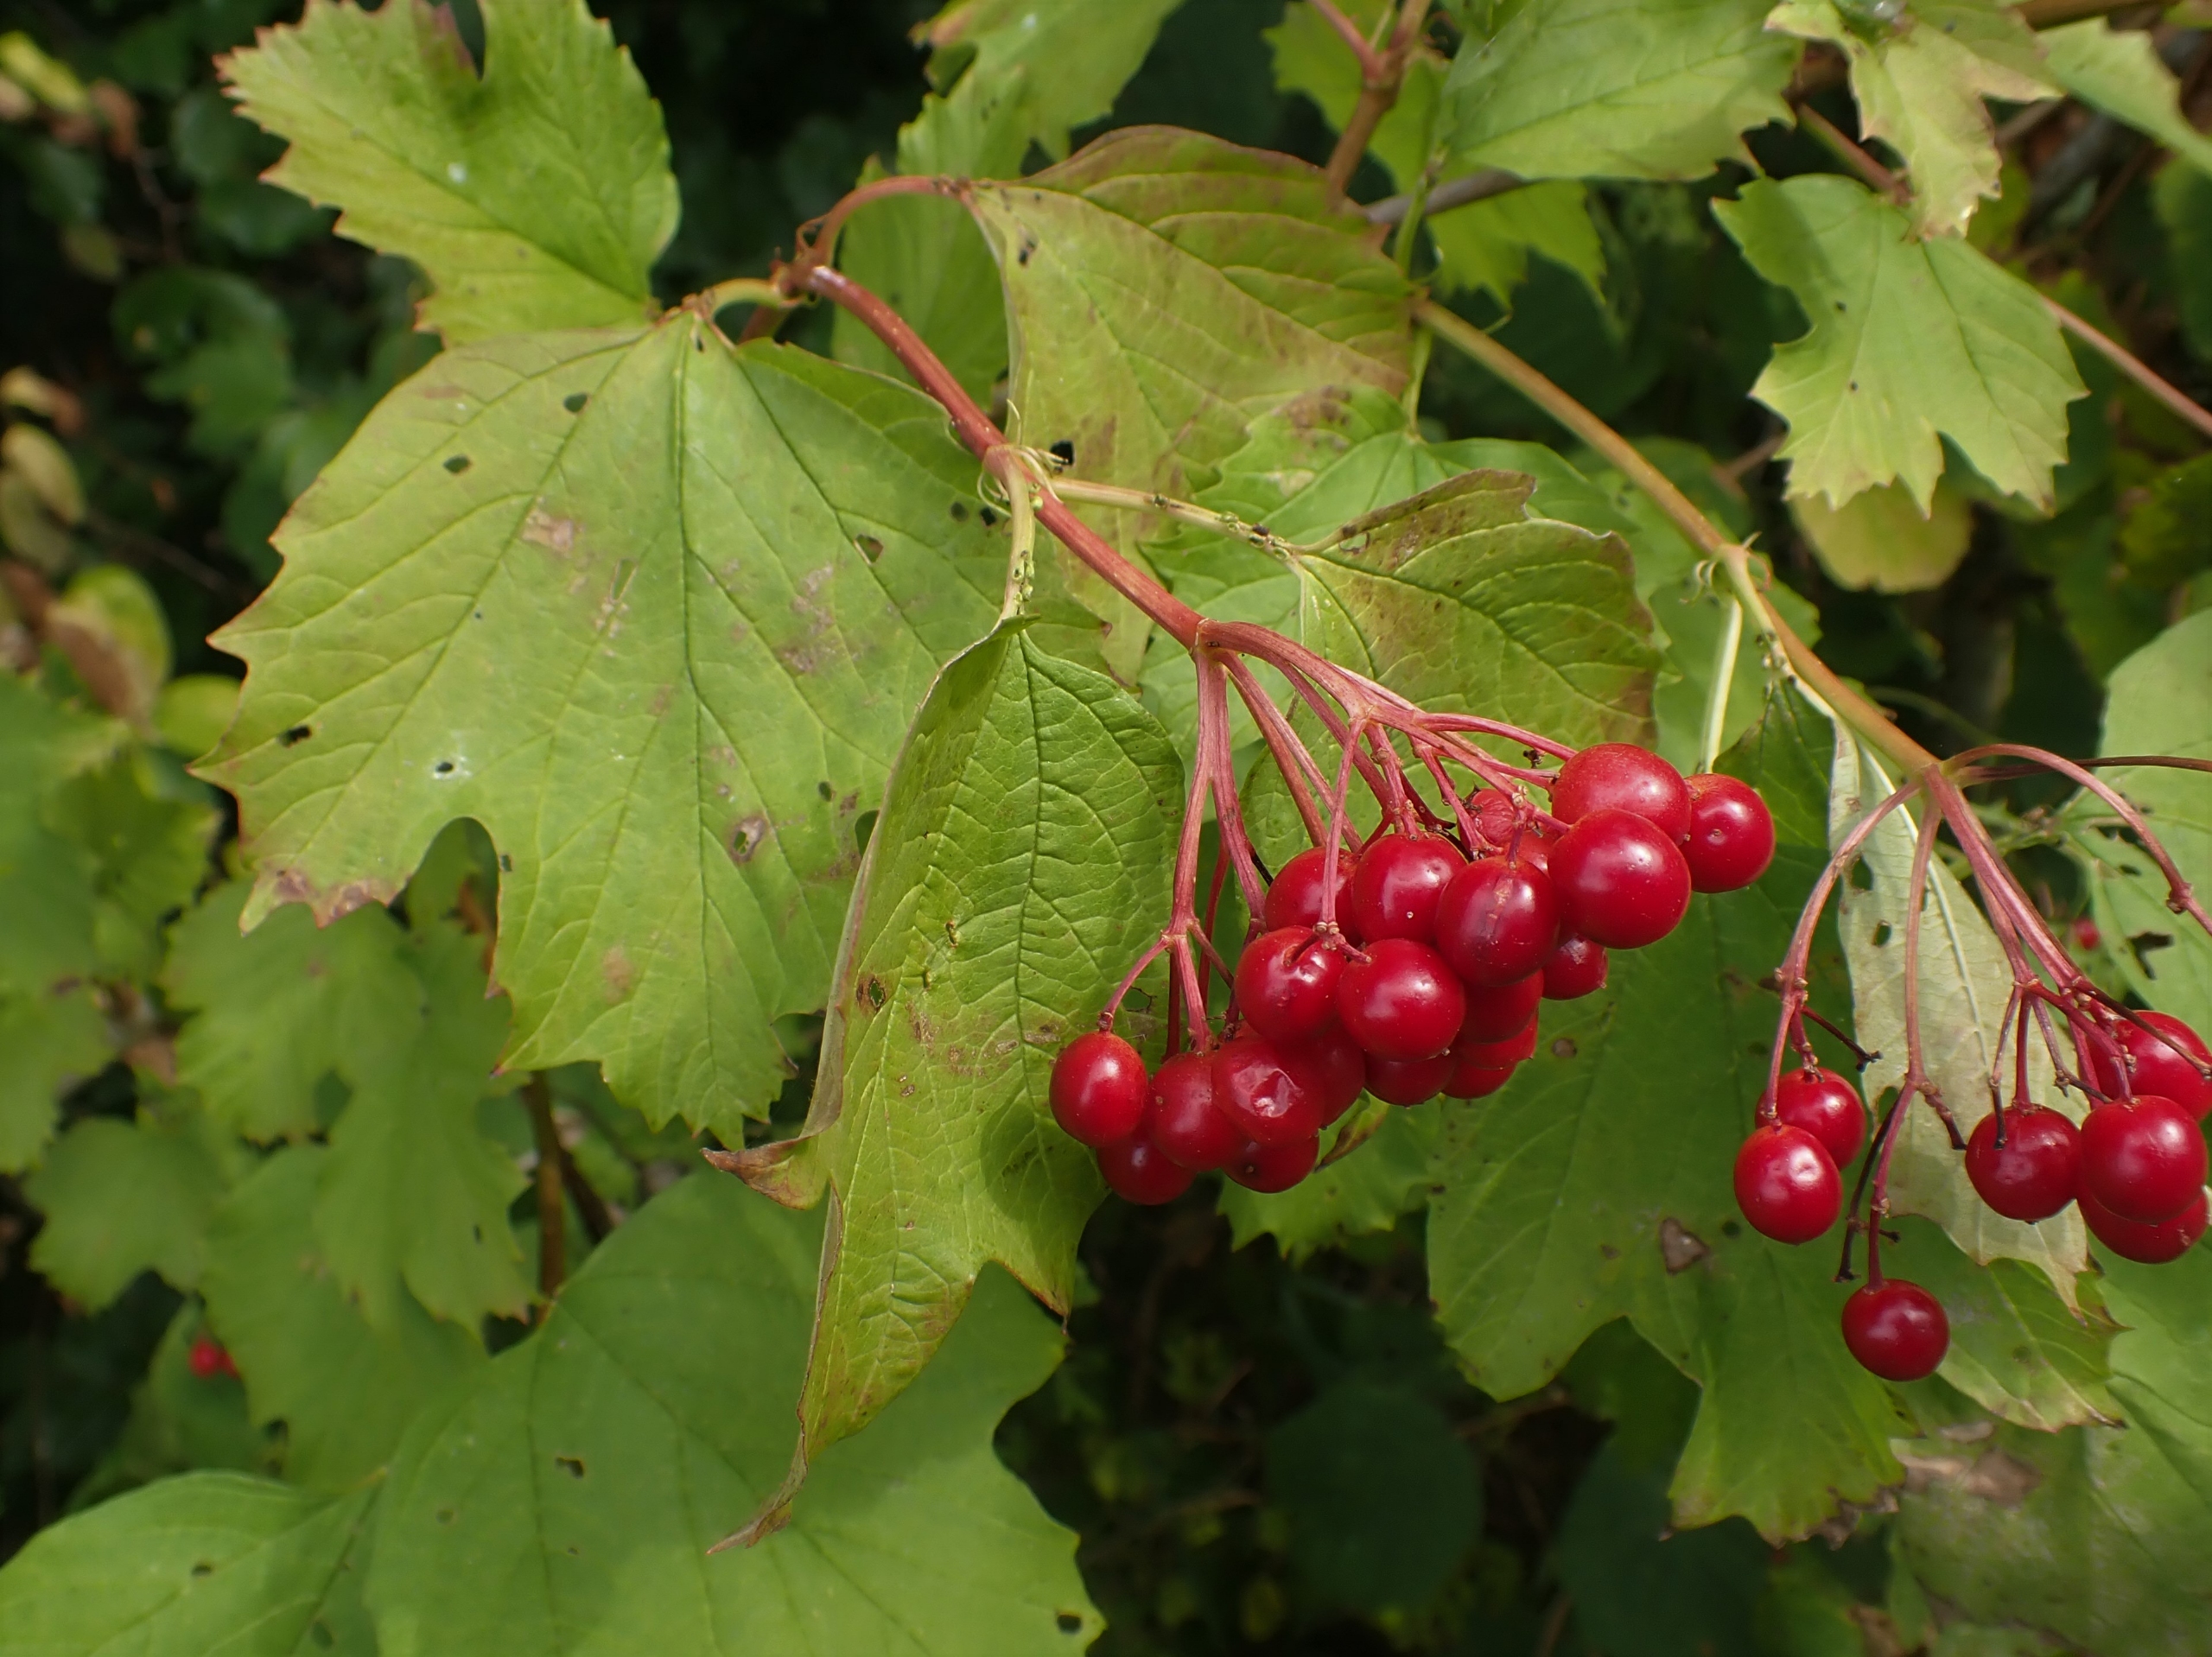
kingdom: Plantae
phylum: Tracheophyta
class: Magnoliopsida
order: Dipsacales
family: Viburnaceae
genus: Viburnum
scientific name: Viburnum opulus
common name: Kvalkved
